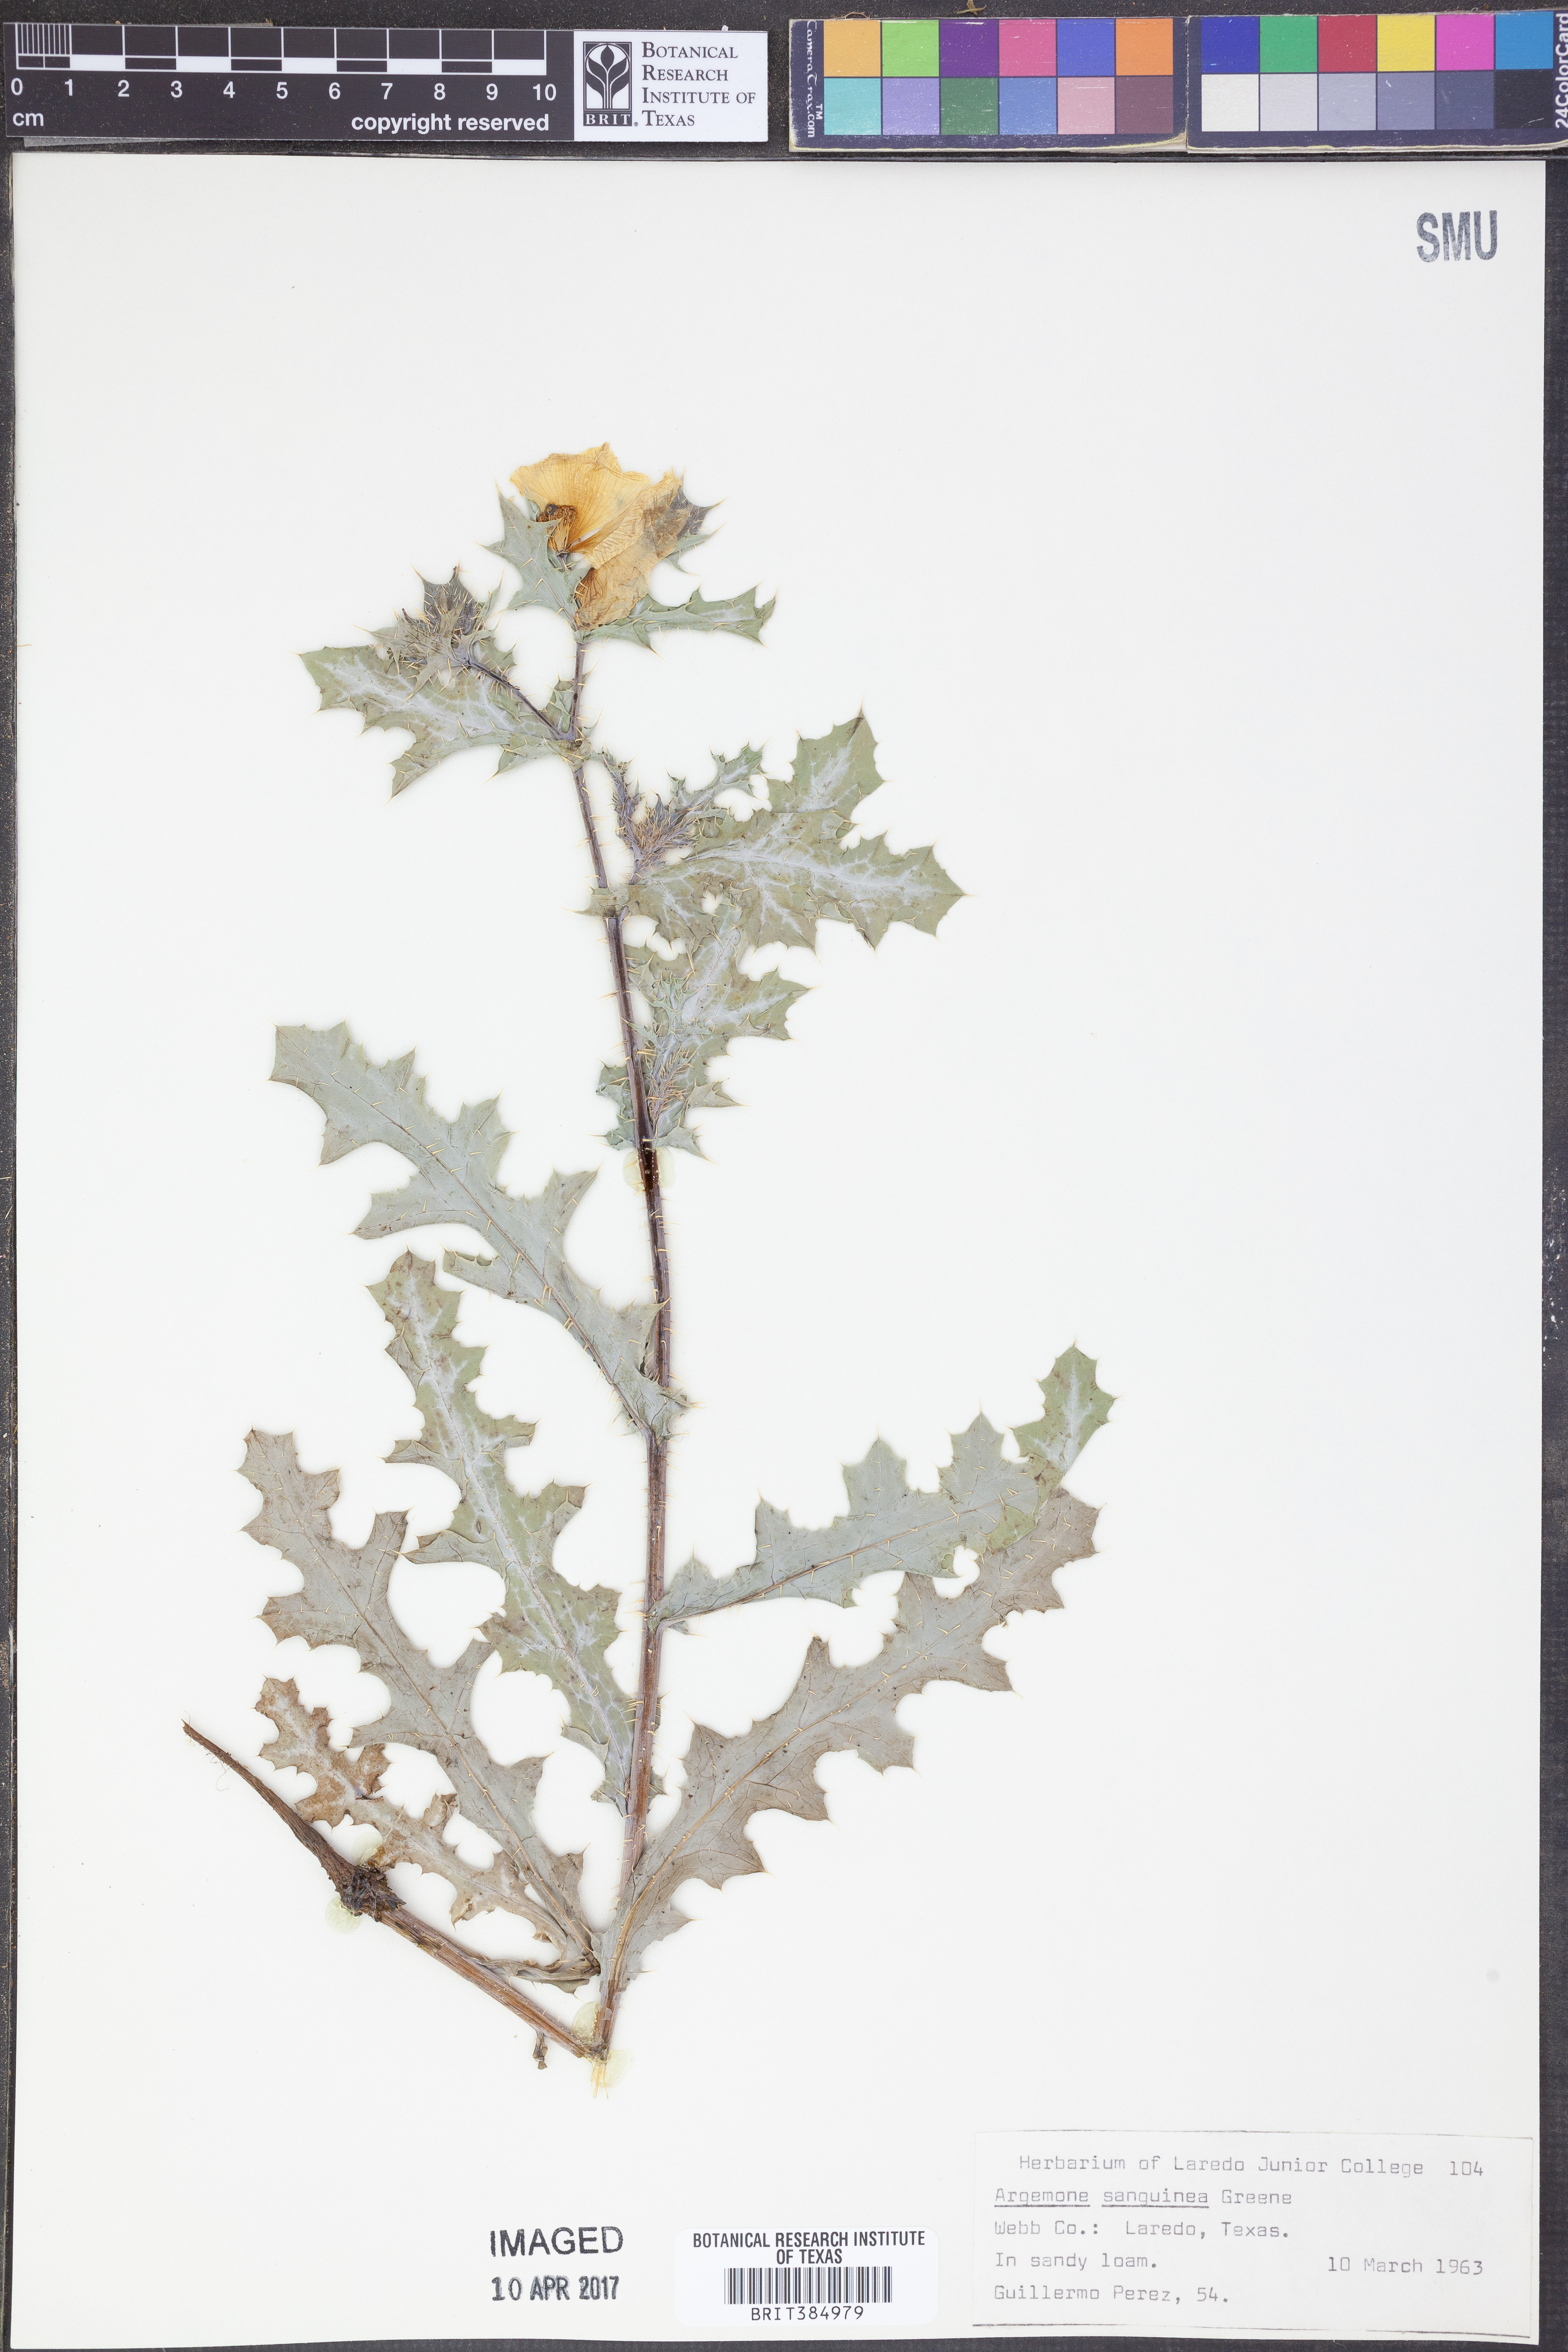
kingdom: Plantae
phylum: Tracheophyta
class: Magnoliopsida
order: Ranunculales
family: Papaveraceae
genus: Argemone
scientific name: Argemone sanguinea
